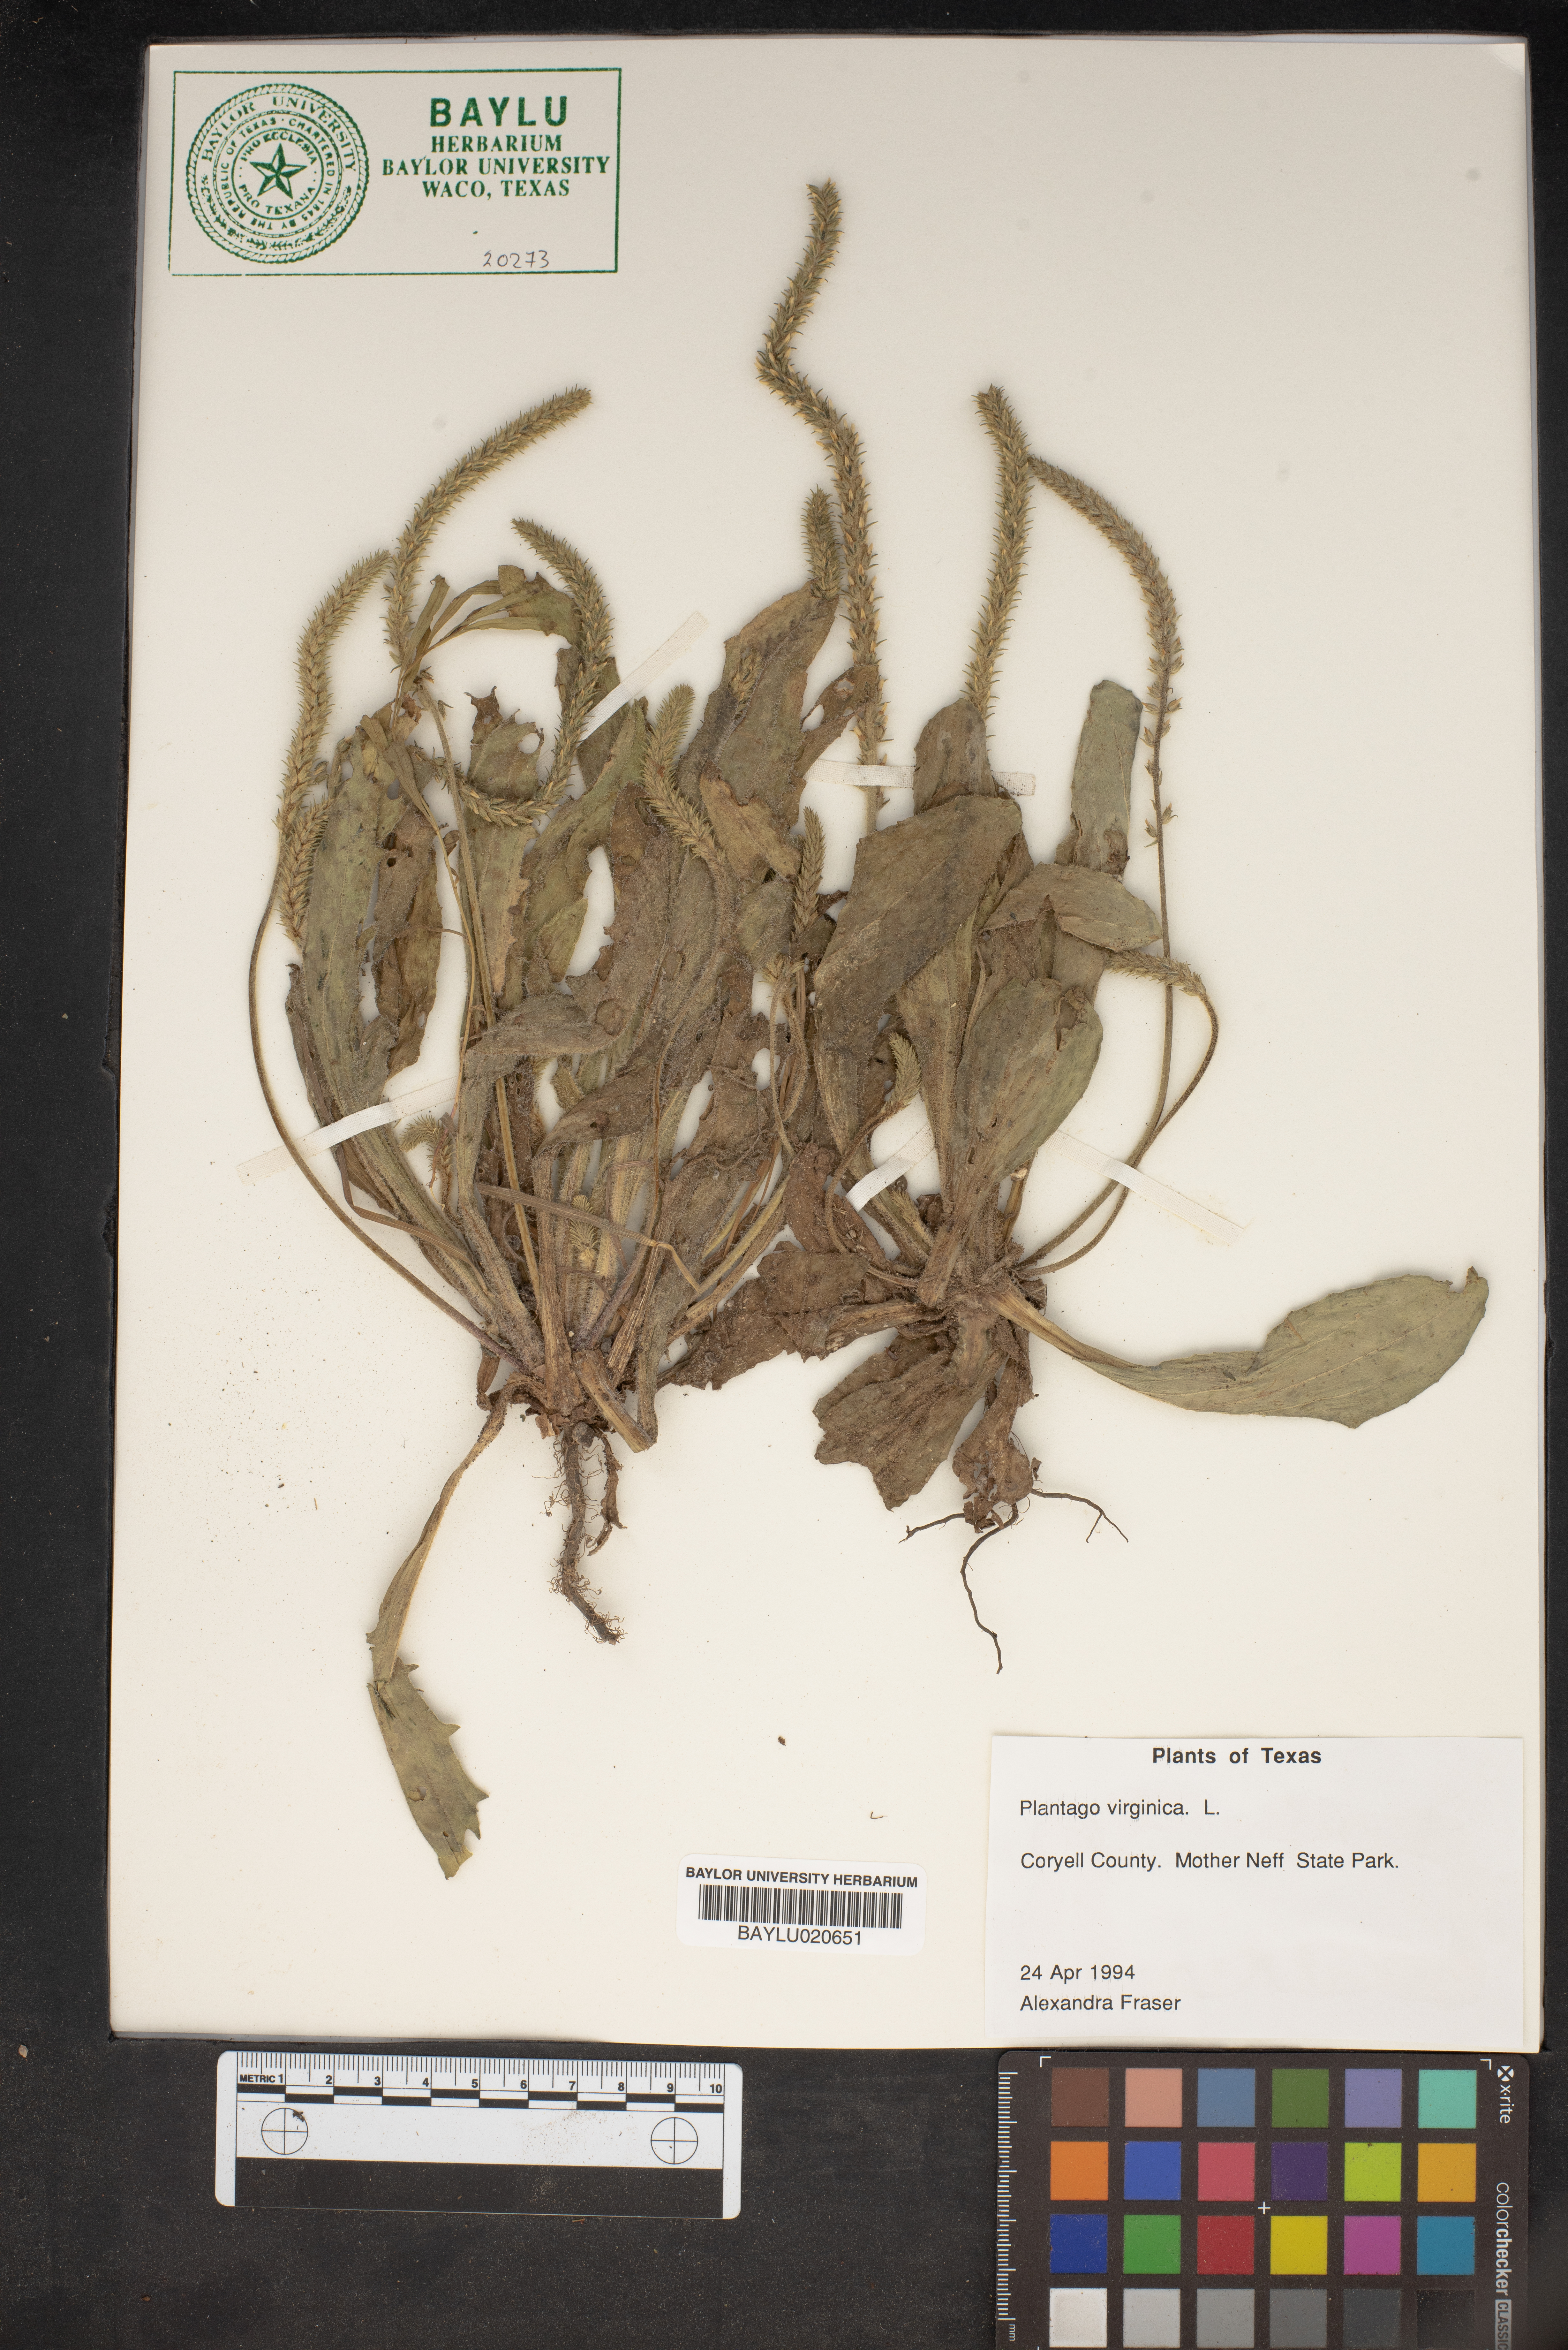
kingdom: Plantae
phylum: Tracheophyta
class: Magnoliopsida
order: Lamiales
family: Plantaginaceae
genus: Plantago
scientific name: Plantago virginica
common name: Hoary plantain
